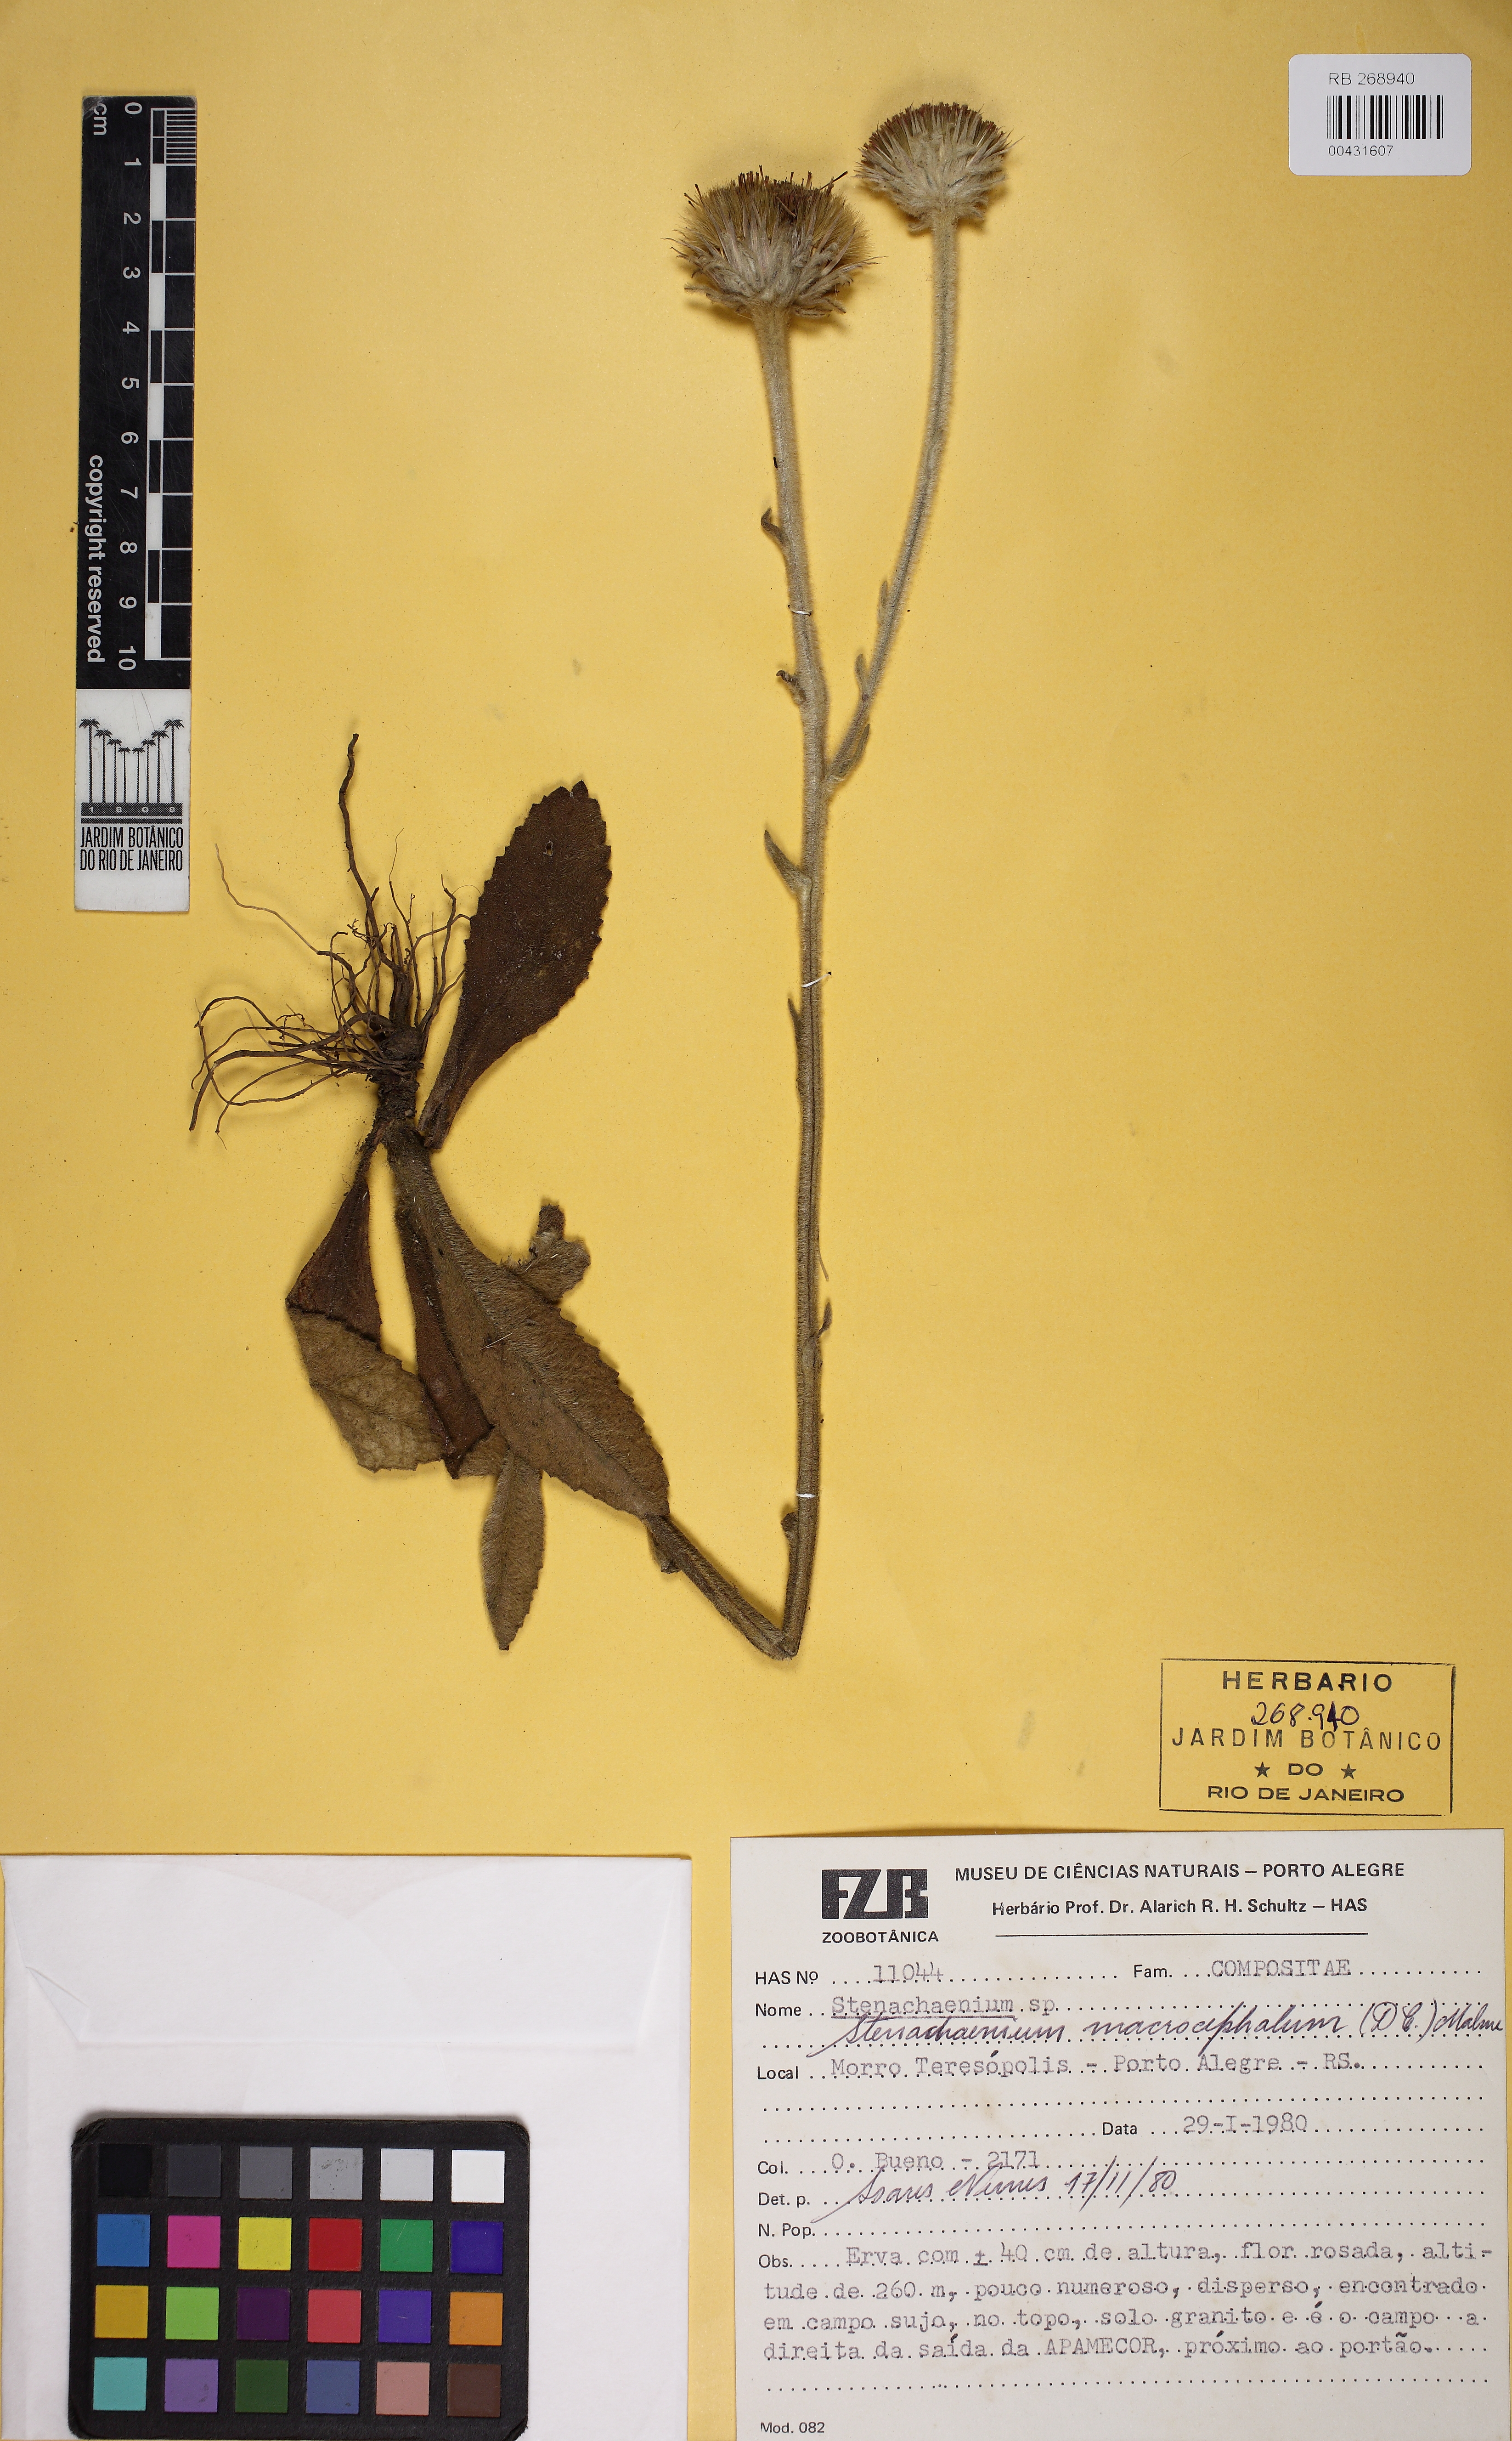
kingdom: Plantae
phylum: Tracheophyta
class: Magnoliopsida
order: Asterales
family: Asteraceae
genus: Stenachaenium
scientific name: Stenachaenium
